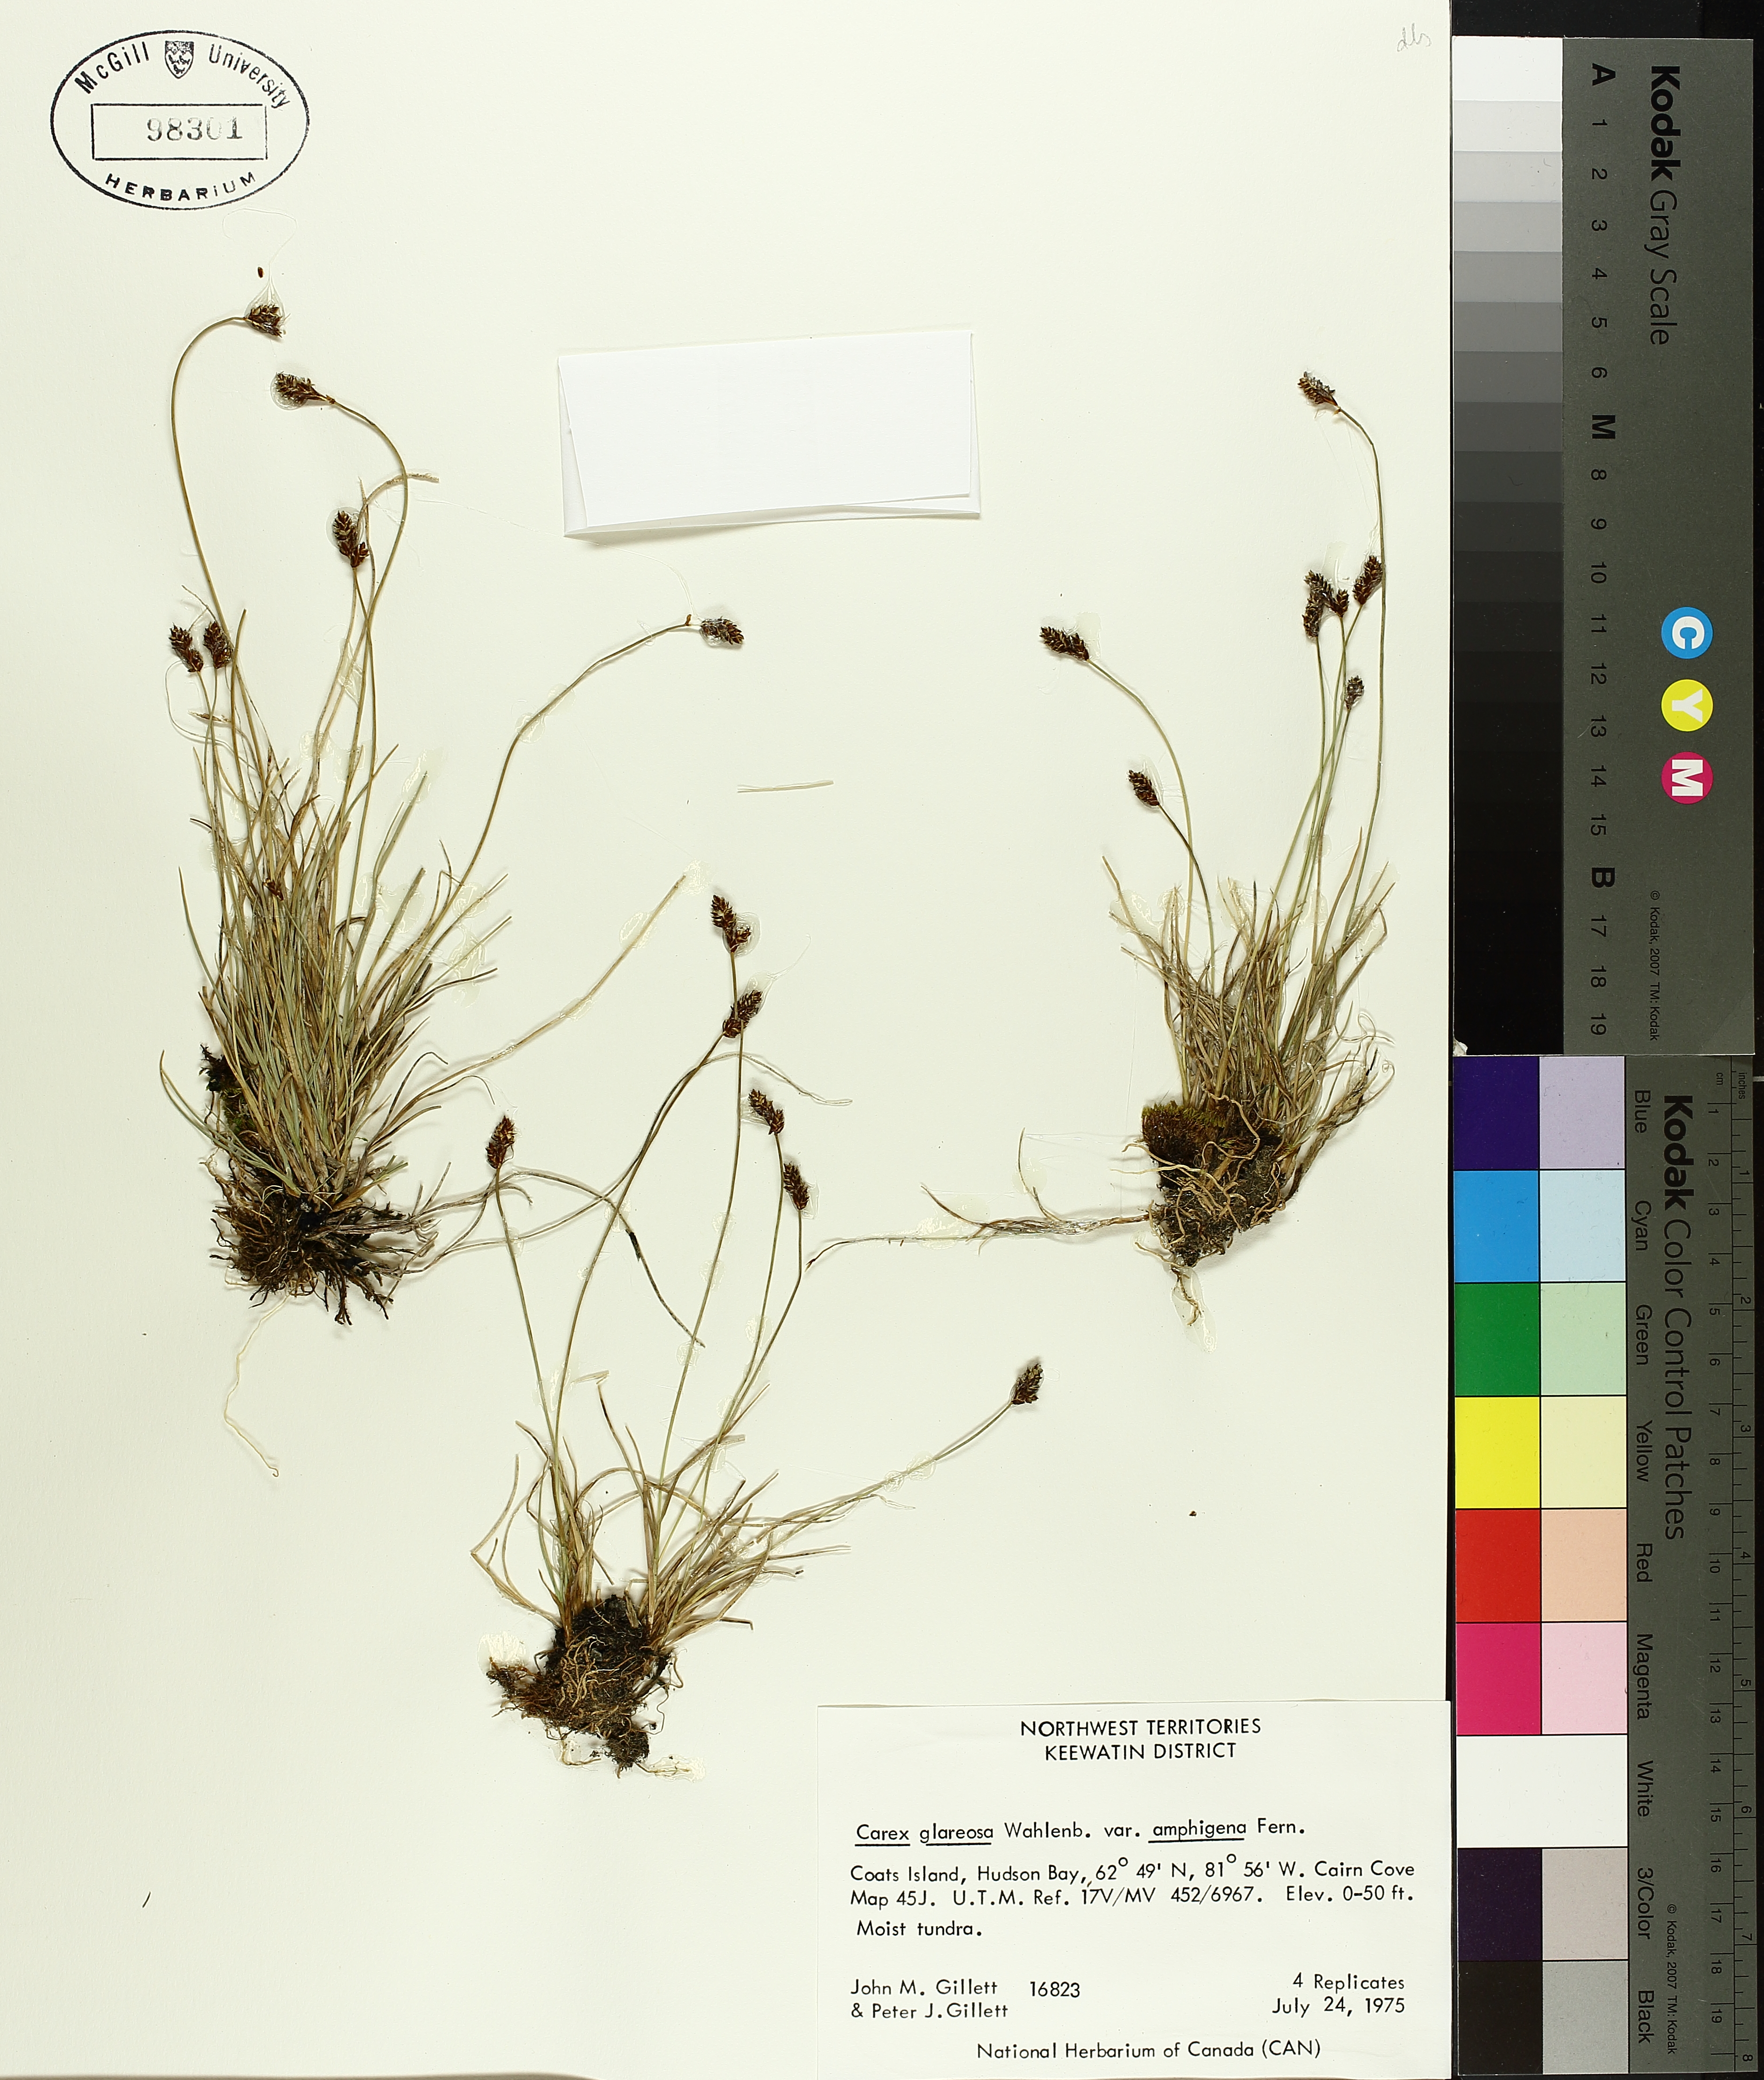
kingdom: Plantae
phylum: Tracheophyta
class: Liliopsida
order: Poales
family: Cyperaceae
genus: Carex
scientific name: Carex glareosa
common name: Clustered sedge
